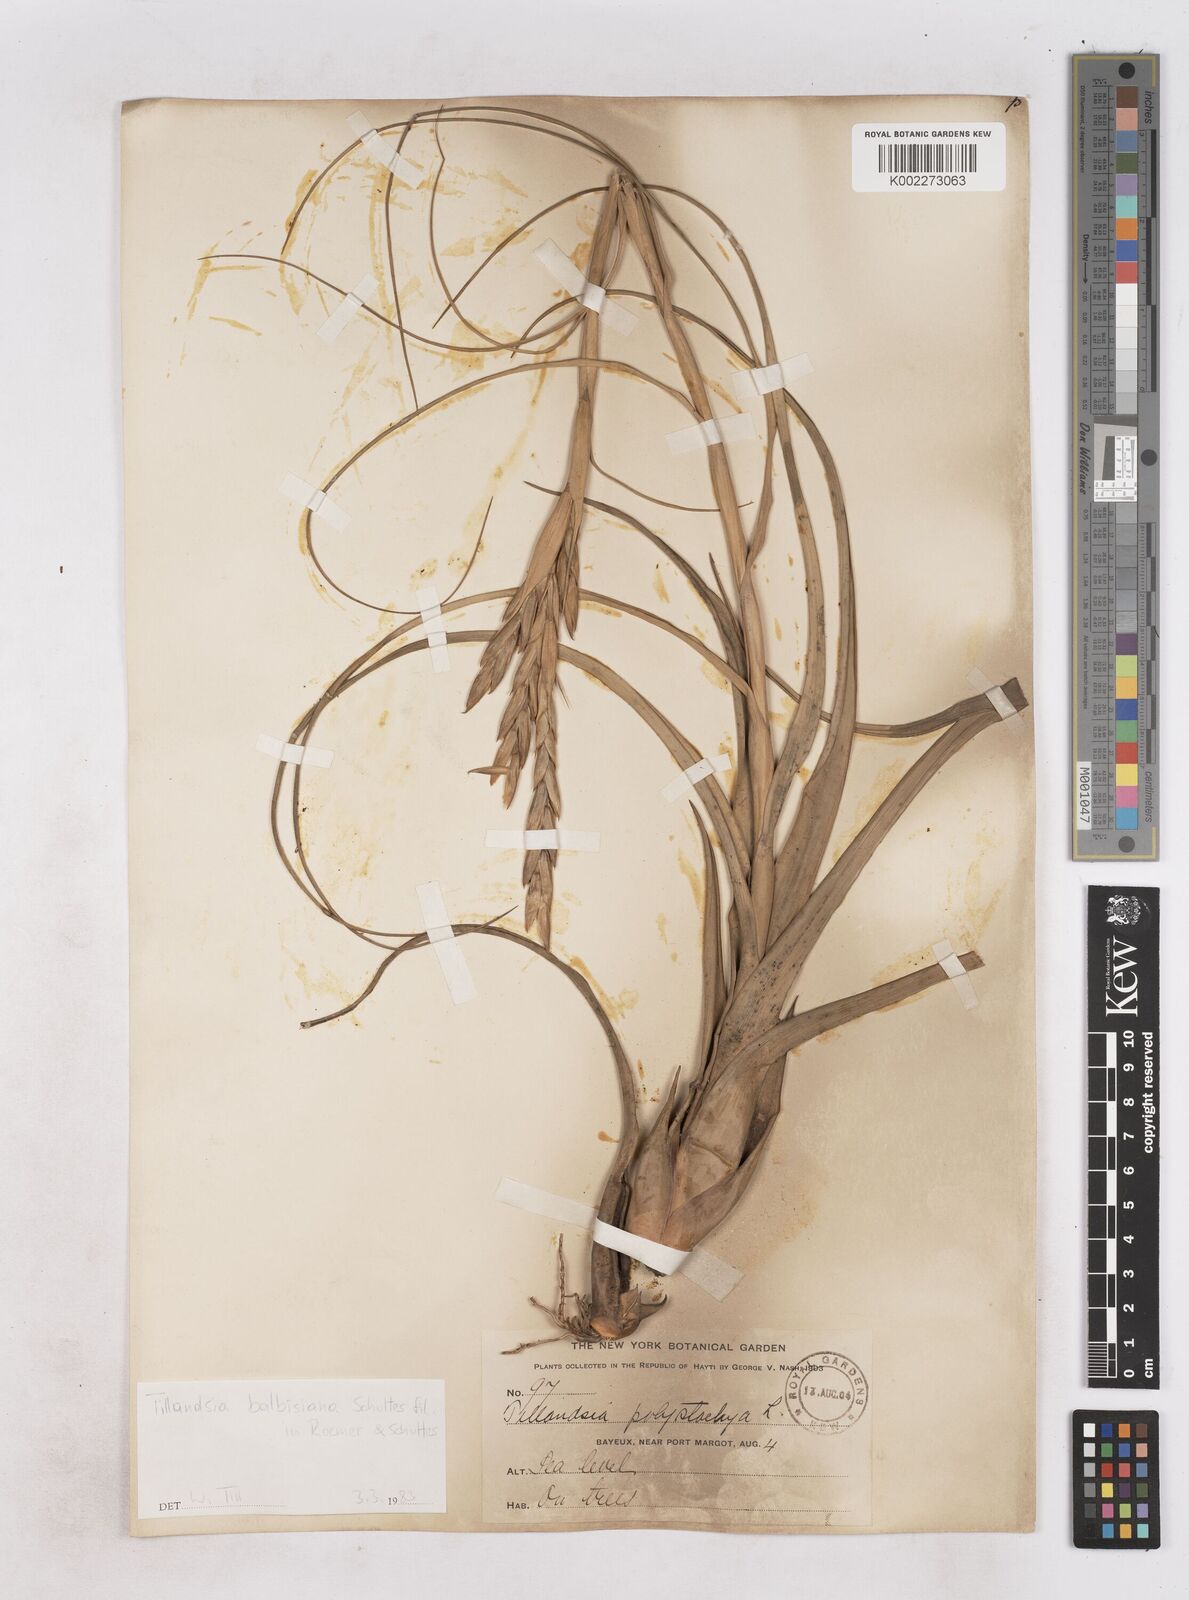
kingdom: Plantae
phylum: Tracheophyta
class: Liliopsida
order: Poales
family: Bromeliaceae
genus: Tillandsia
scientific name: Tillandsia balbisiana
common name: Northern needleleaf
